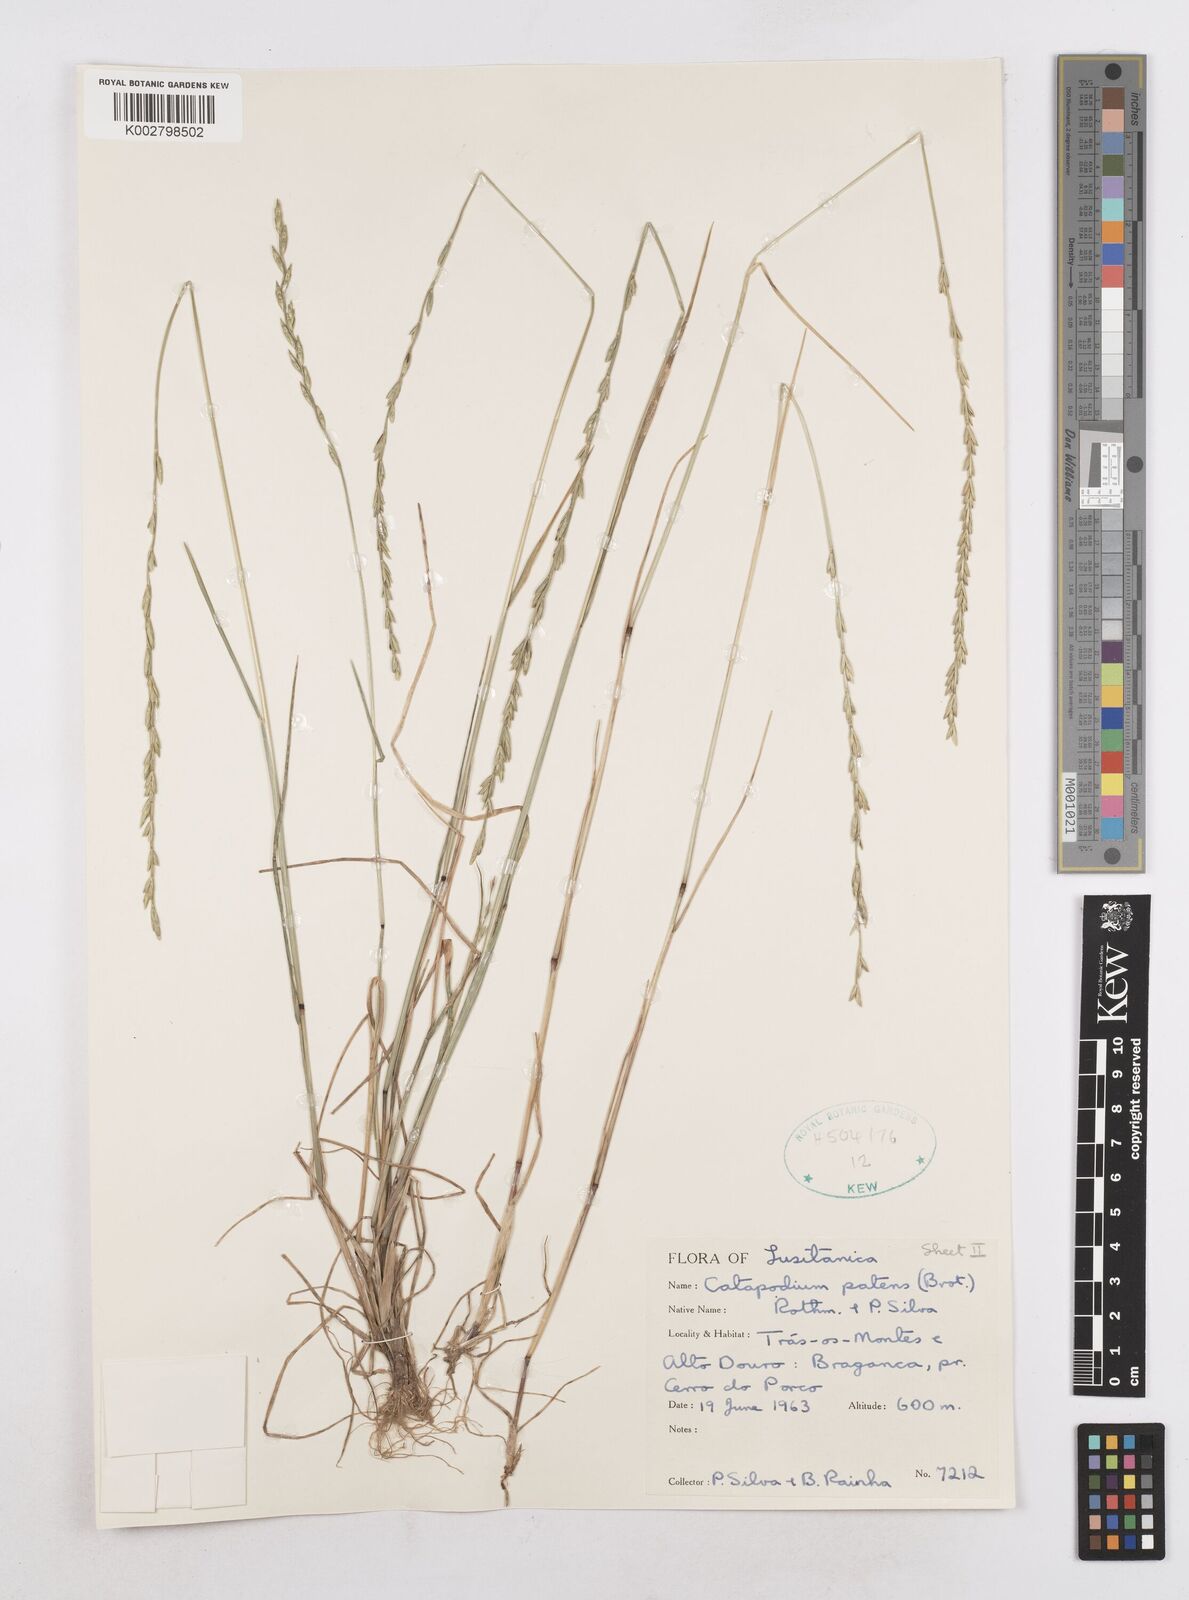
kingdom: Plantae
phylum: Tracheophyta
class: Liliopsida
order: Poales
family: Poaceae
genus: Festuca
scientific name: Festuca Micropyrum patens
